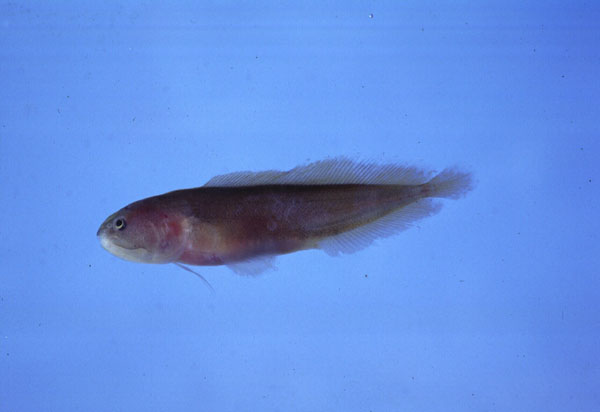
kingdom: Animalia
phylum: Chordata
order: Ophidiiformes
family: Bythitidae
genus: Bidenichthys
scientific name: Bidenichthys capensis
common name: Freetail brotula
